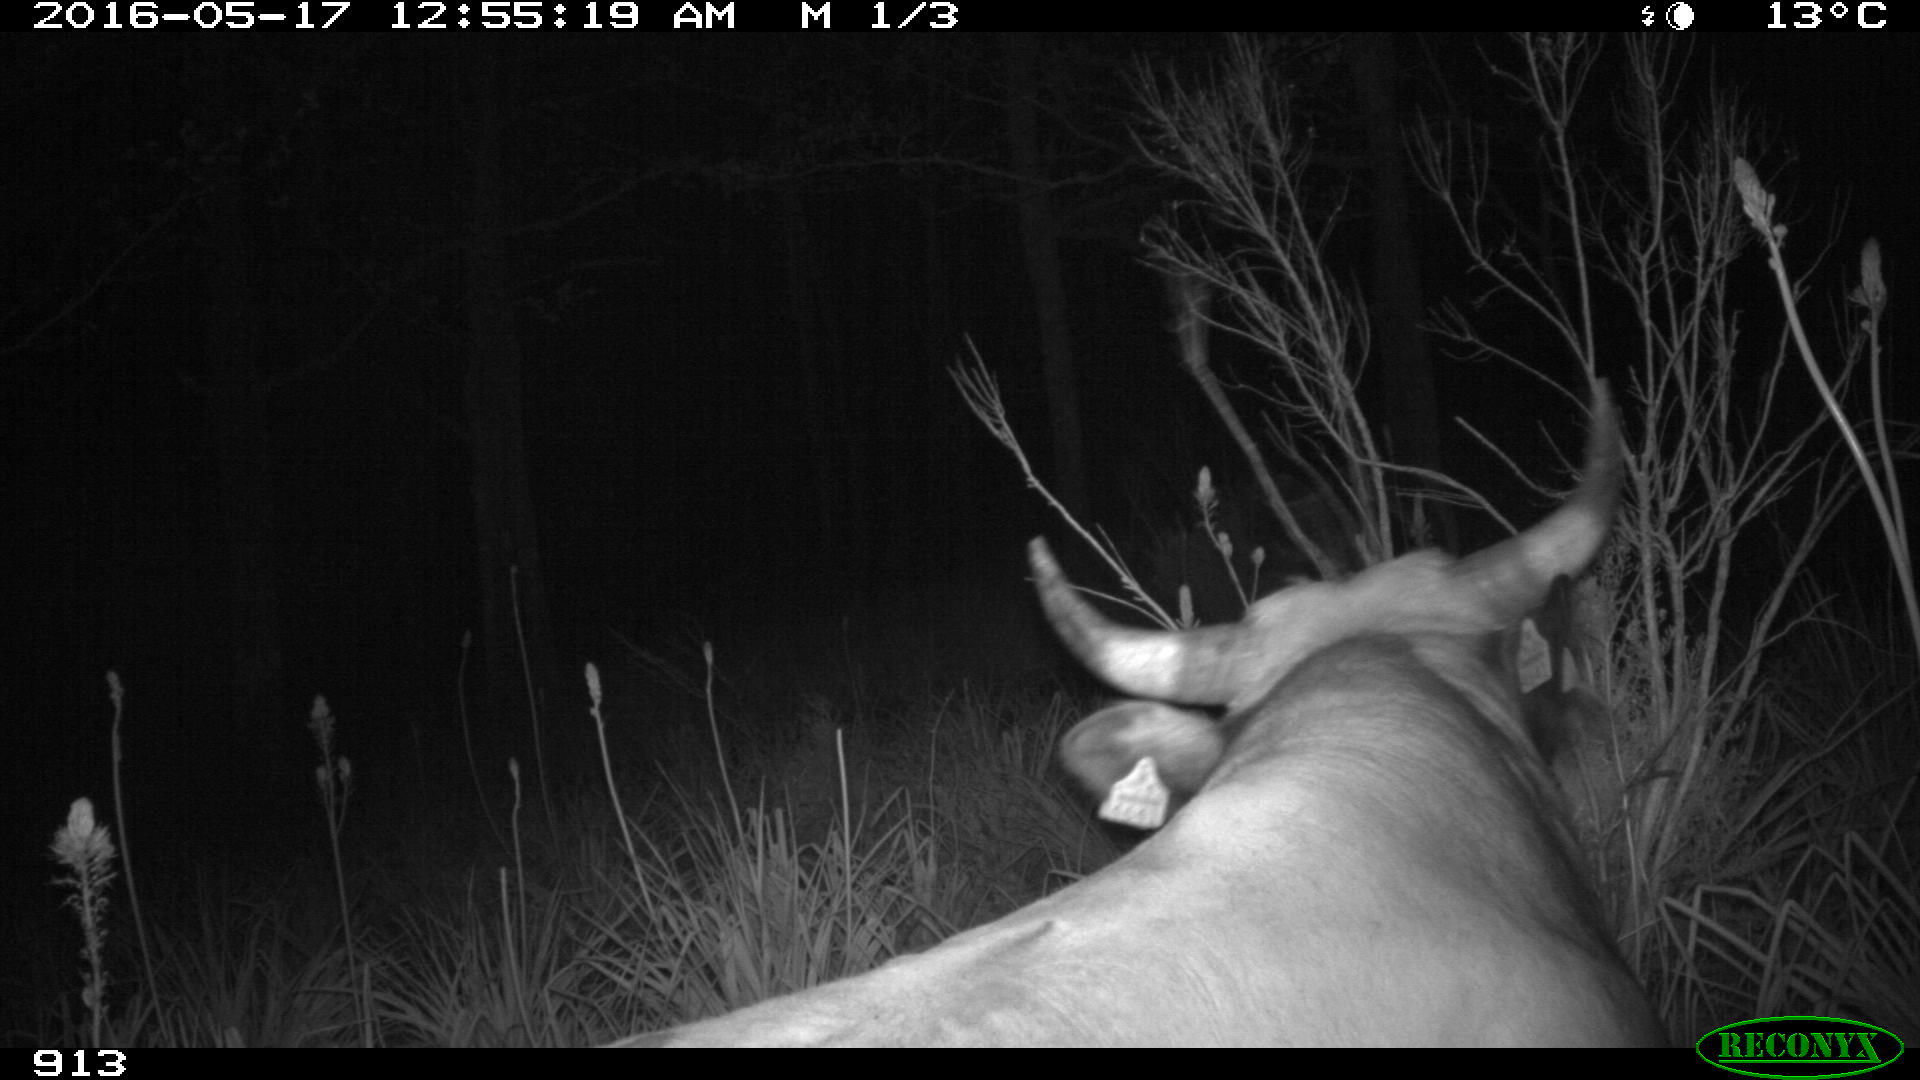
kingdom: Animalia
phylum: Chordata
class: Mammalia
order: Artiodactyla
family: Bovidae
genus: Bos
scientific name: Bos taurus
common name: Domesticated cattle
